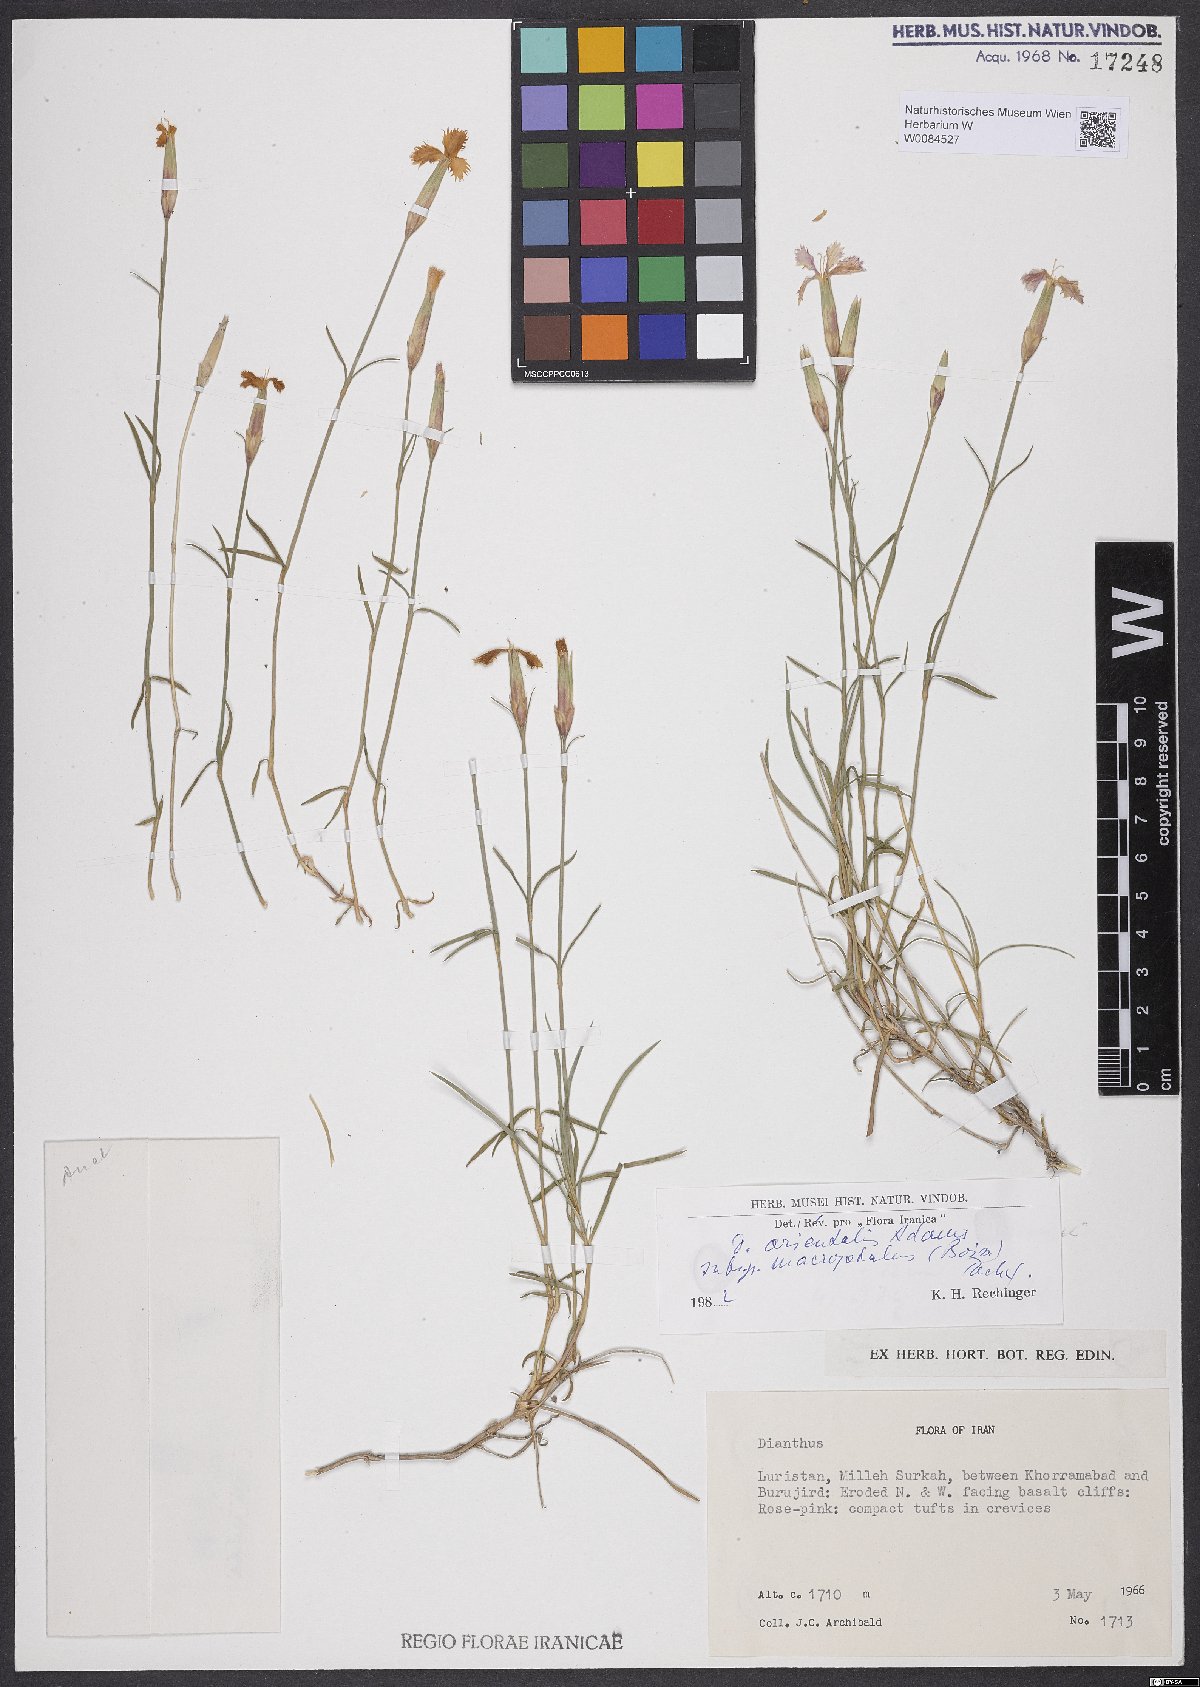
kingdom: Plantae
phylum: Tracheophyta
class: Magnoliopsida
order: Caryophyllales
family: Caryophyllaceae
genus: Dianthus
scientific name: Dianthus orientalis
